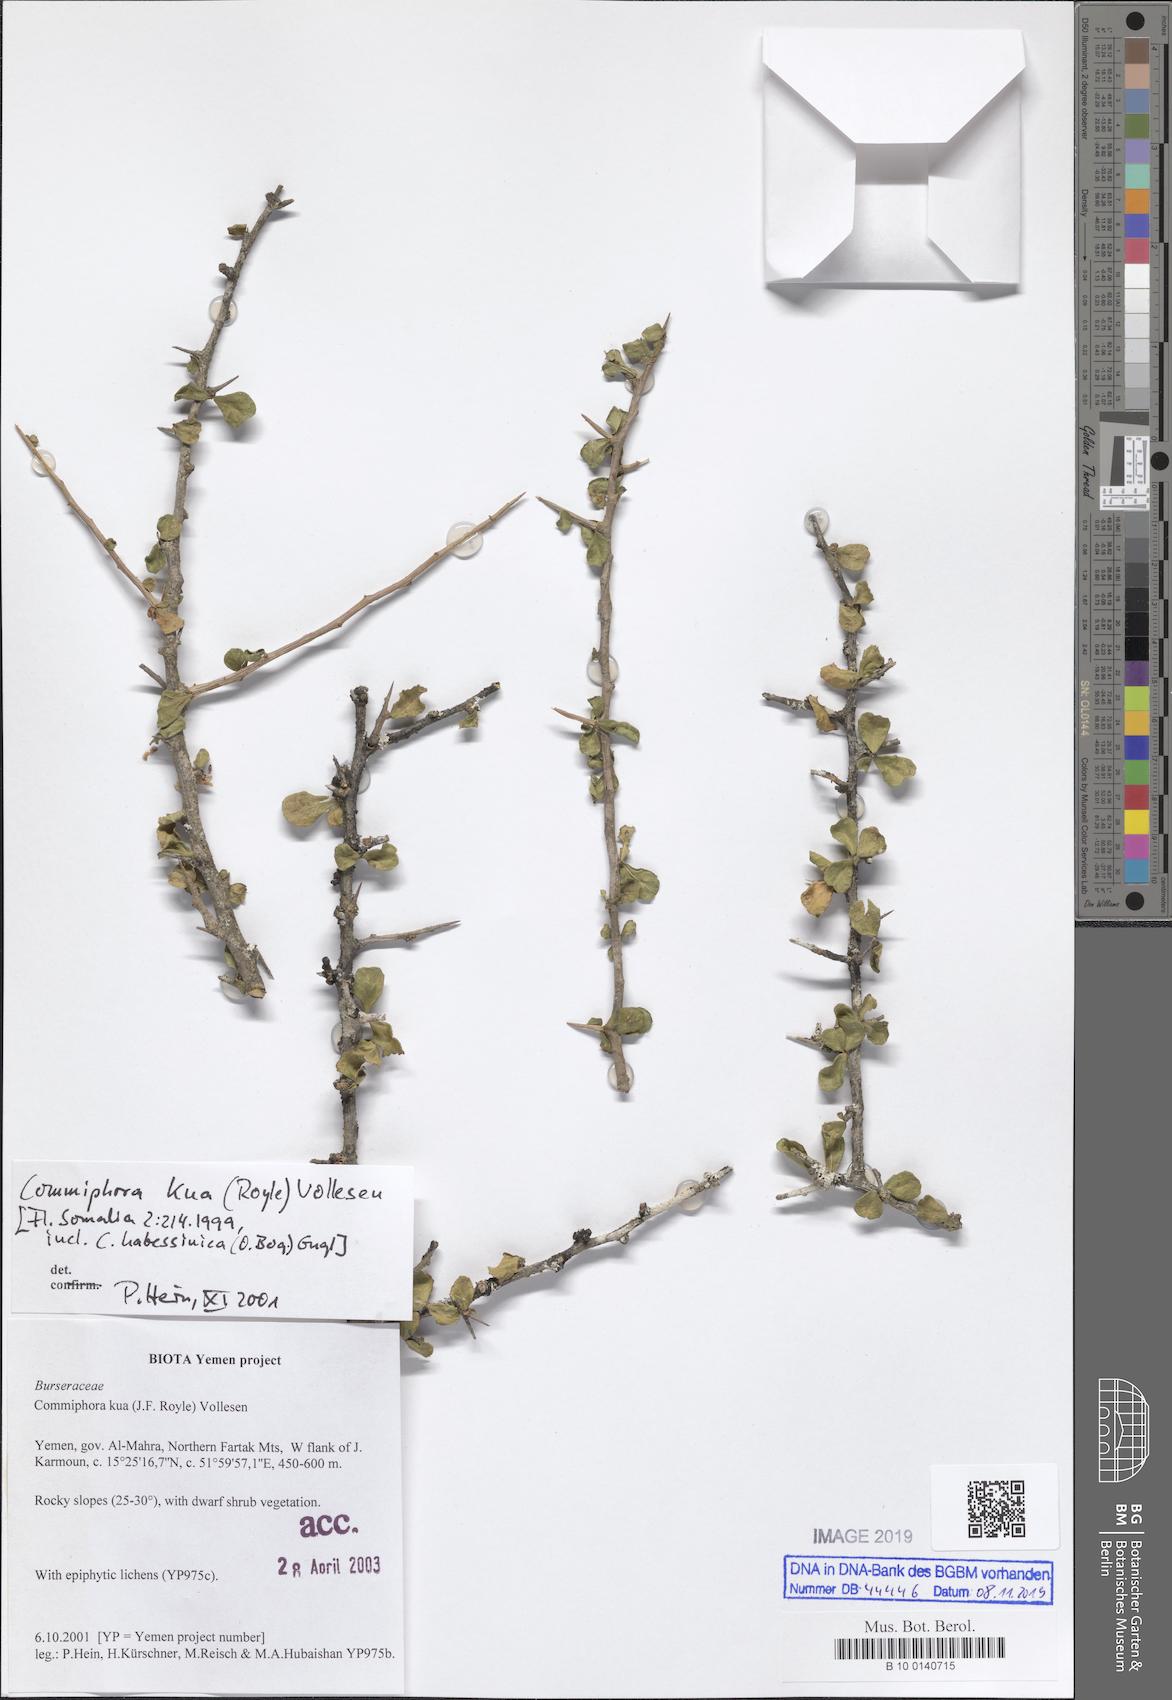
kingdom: Plantae
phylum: Tracheophyta
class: Magnoliopsida
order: Sapindales
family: Burseraceae
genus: Commiphora
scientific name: Commiphora kua
